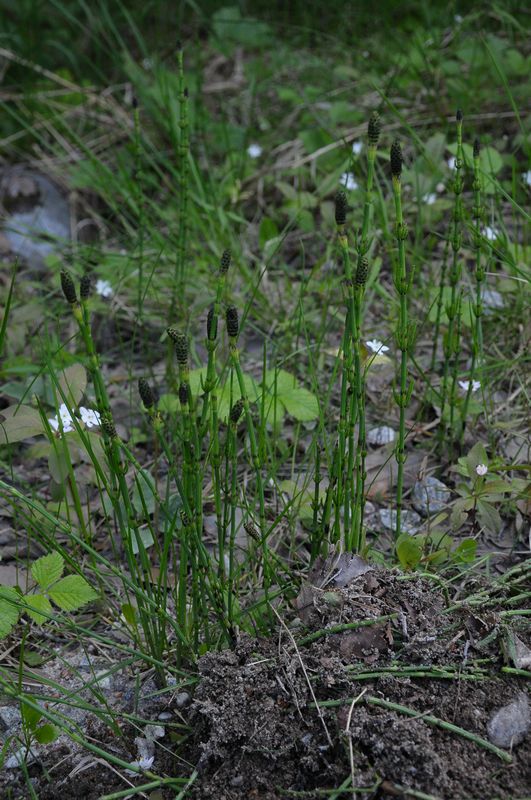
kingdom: Plantae
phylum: Tracheophyta
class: Polypodiopsida
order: Equisetales
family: Equisetaceae
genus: Equisetum
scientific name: Equisetum palustre
